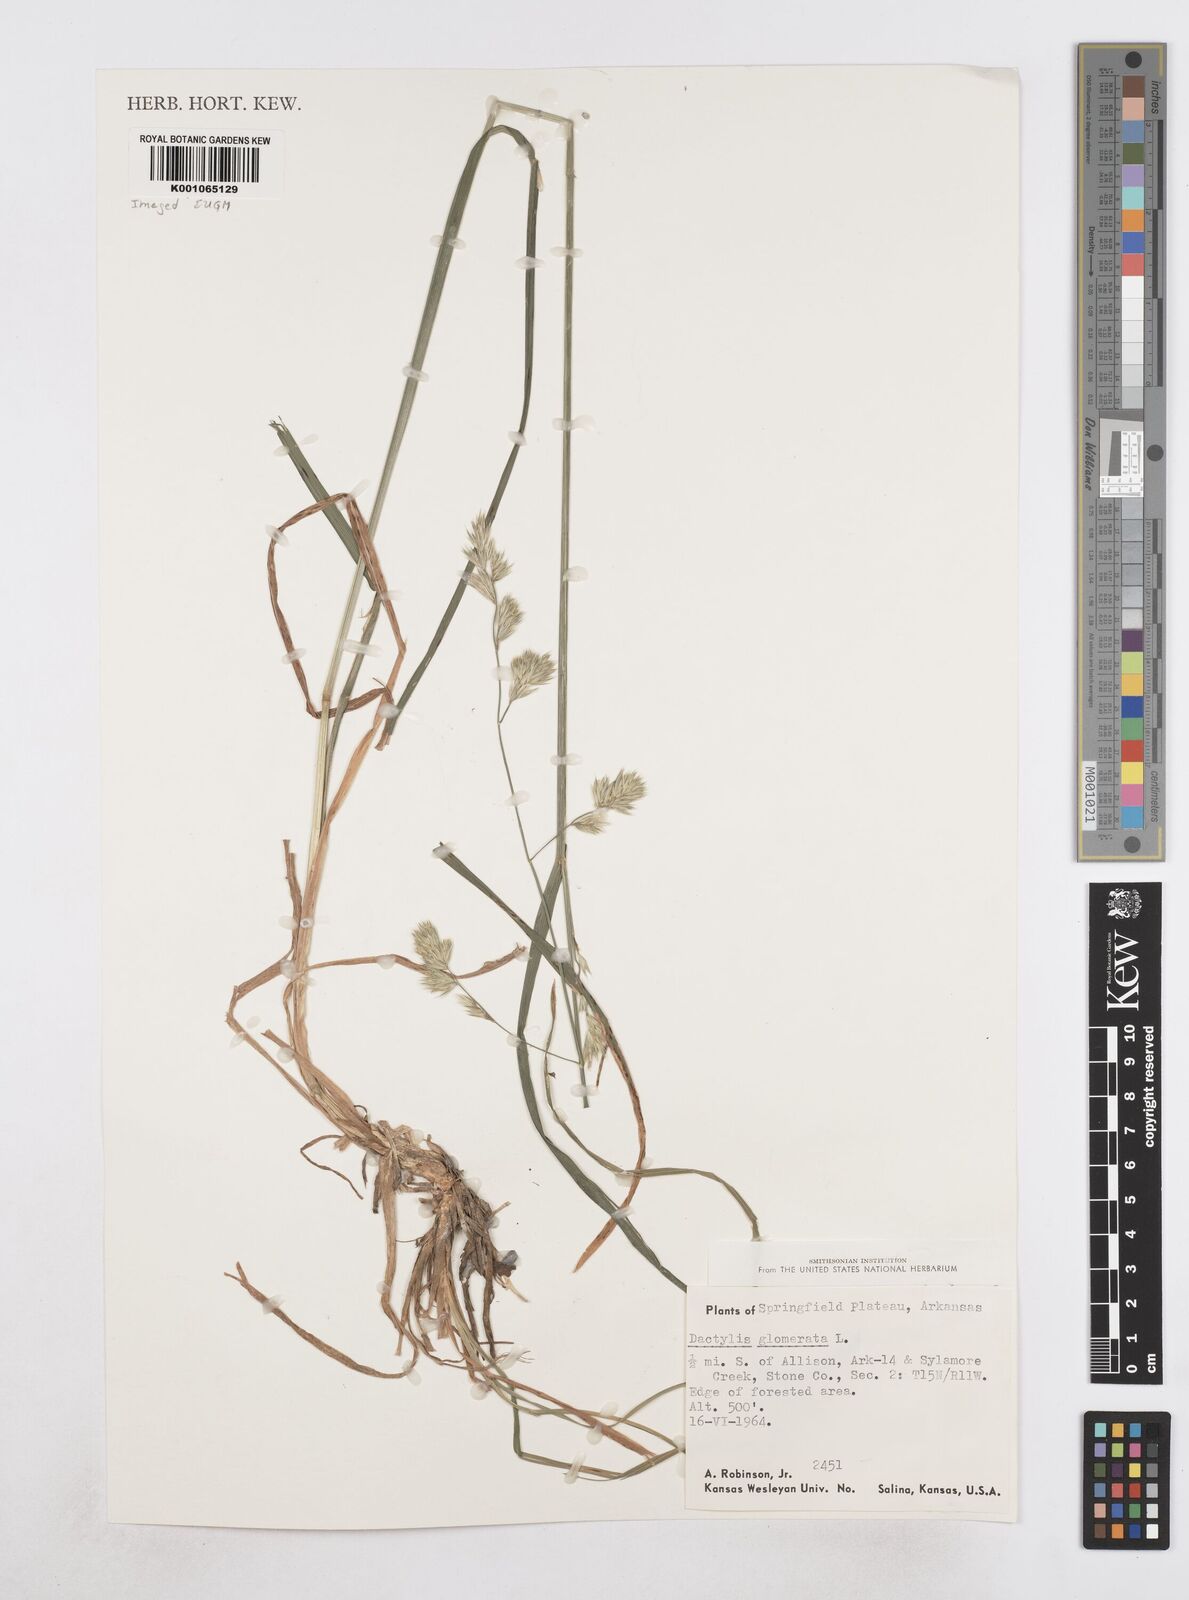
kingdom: Plantae
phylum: Tracheophyta
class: Liliopsida
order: Poales
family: Poaceae
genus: Dactylis
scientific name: Dactylis glomerata
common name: Orchardgrass
